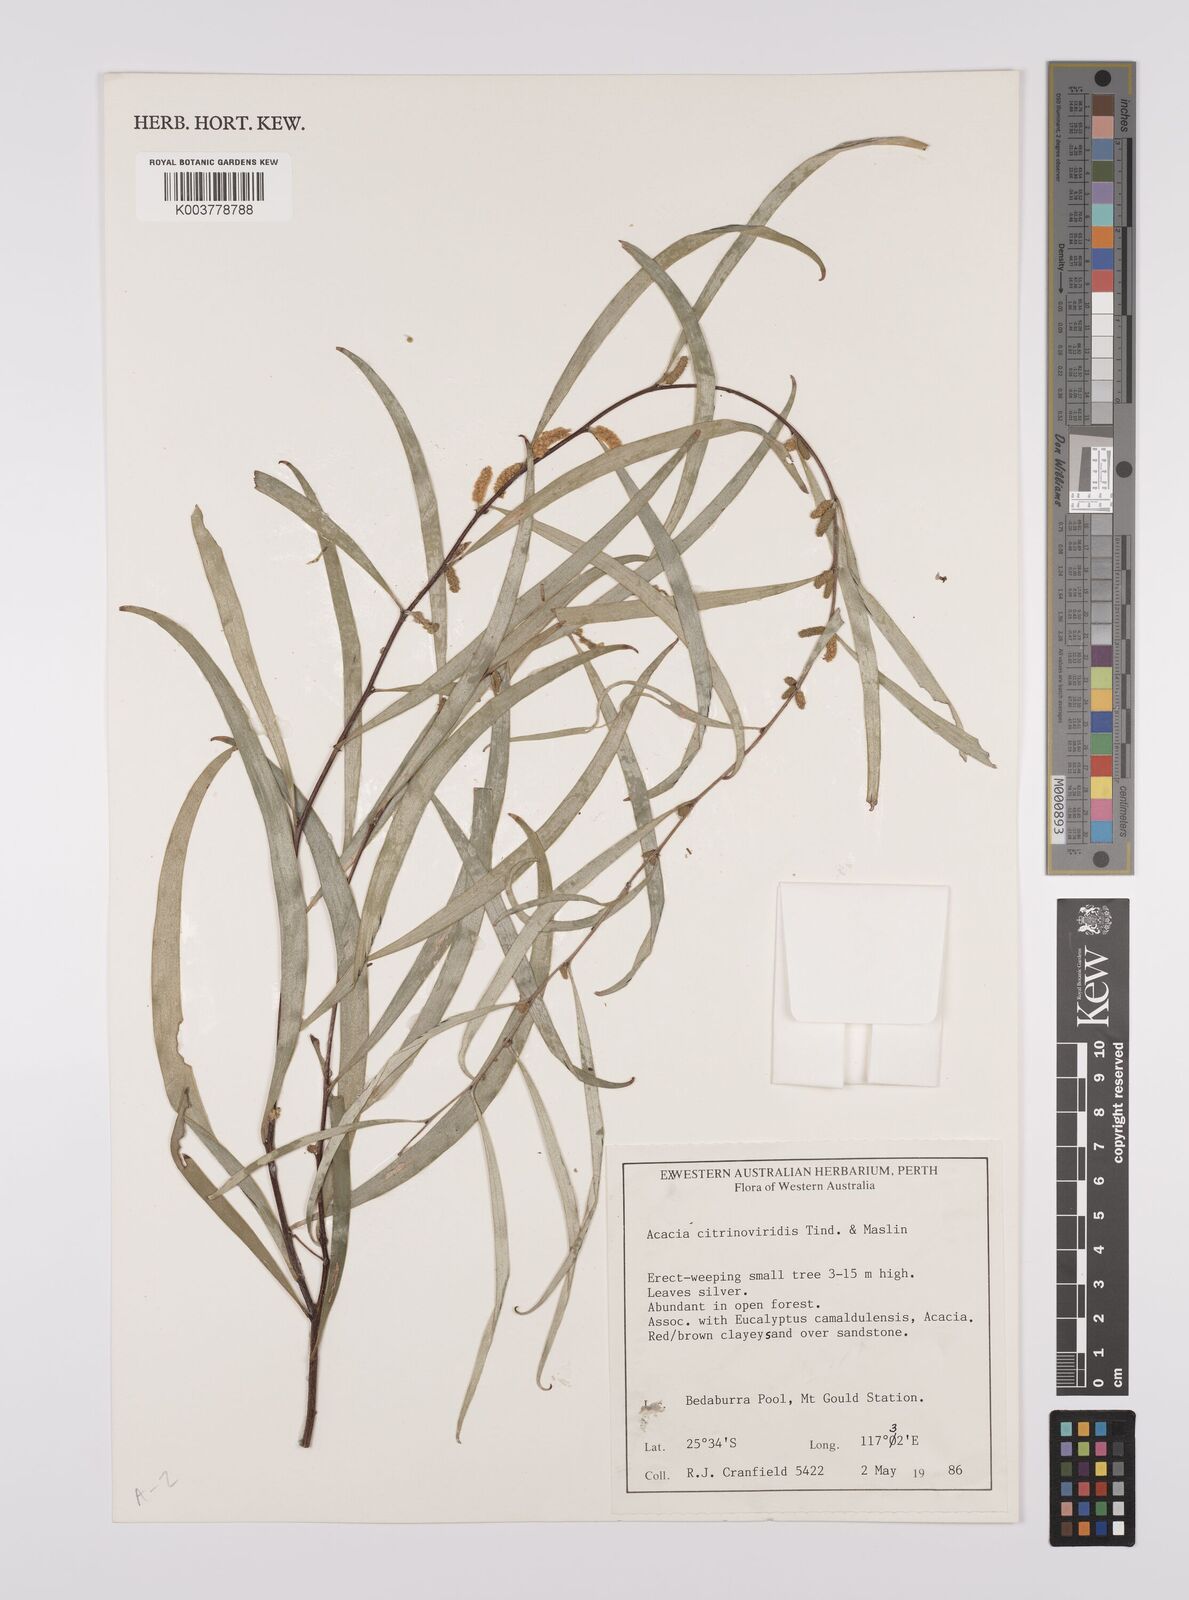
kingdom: Plantae
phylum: Tracheophyta
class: Magnoliopsida
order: Fabales
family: Fabaceae
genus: Acacia
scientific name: Acacia citrinoviridis
